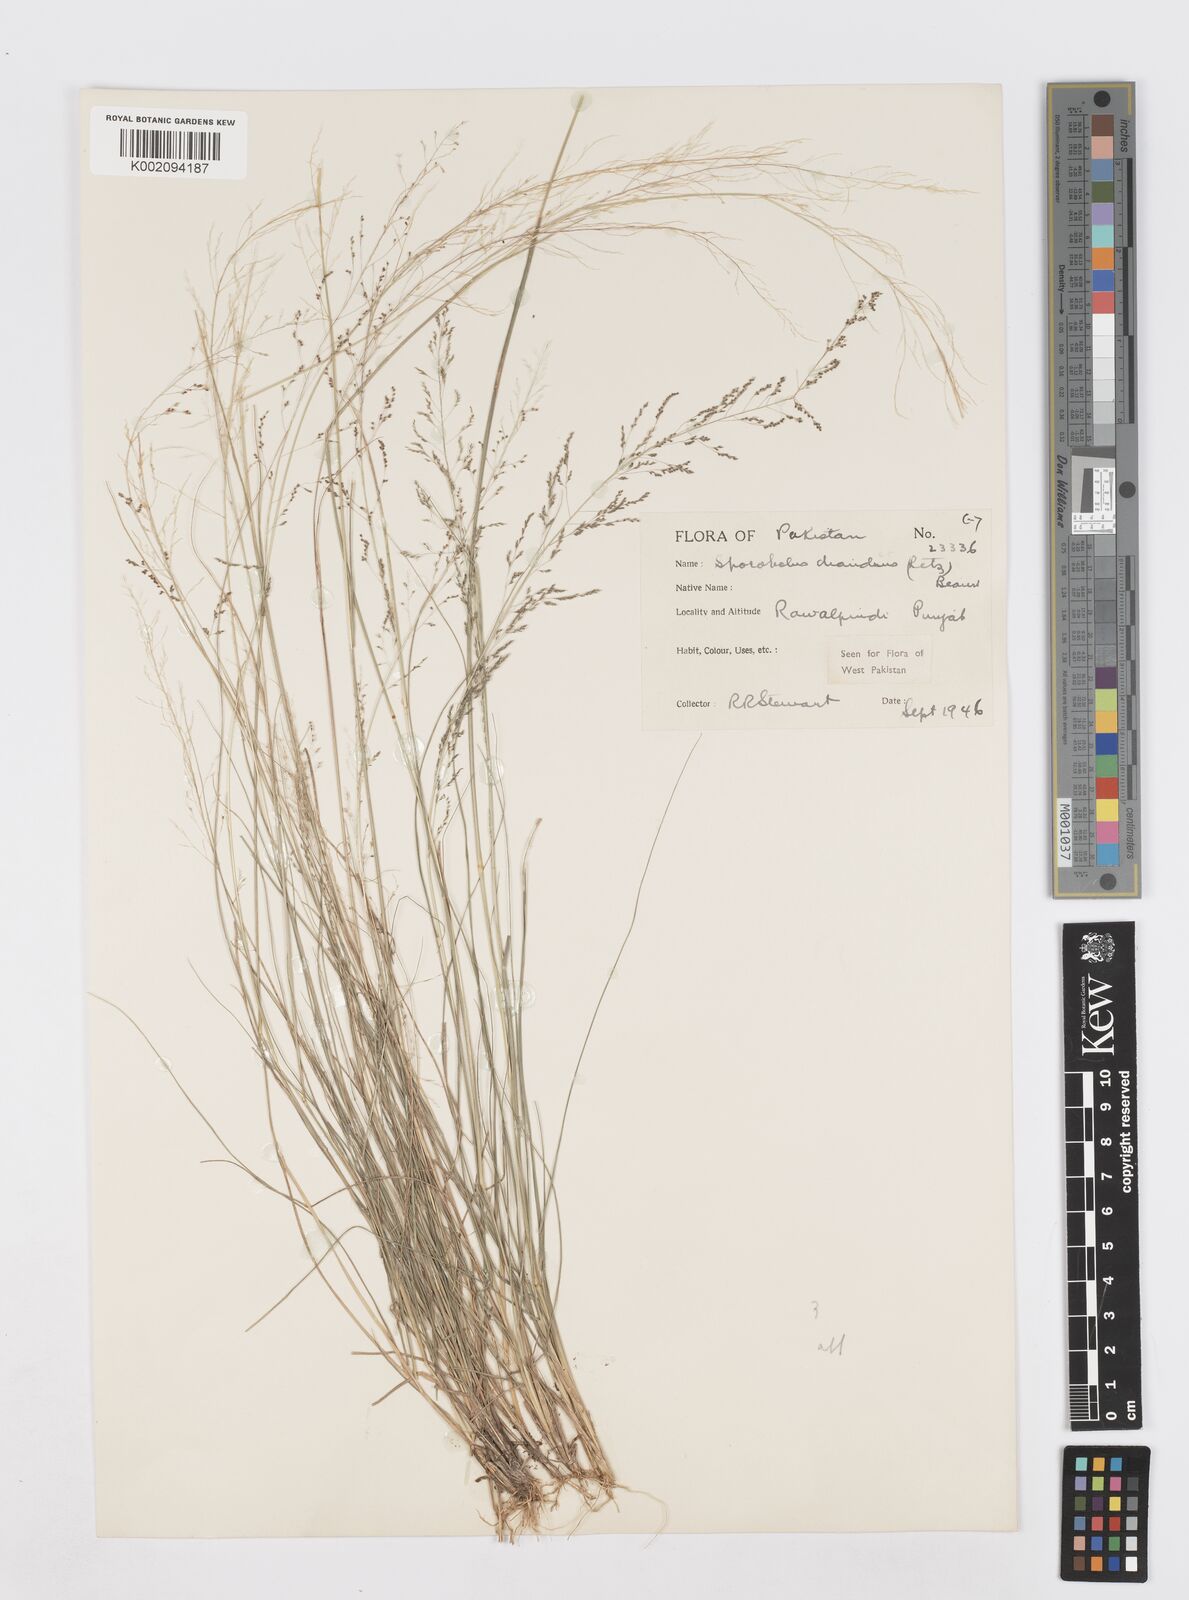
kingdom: Plantae
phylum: Tracheophyta
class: Liliopsida
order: Poales
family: Poaceae
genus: Sporobolus
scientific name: Sporobolus diandrus
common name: Tussock dropseed
